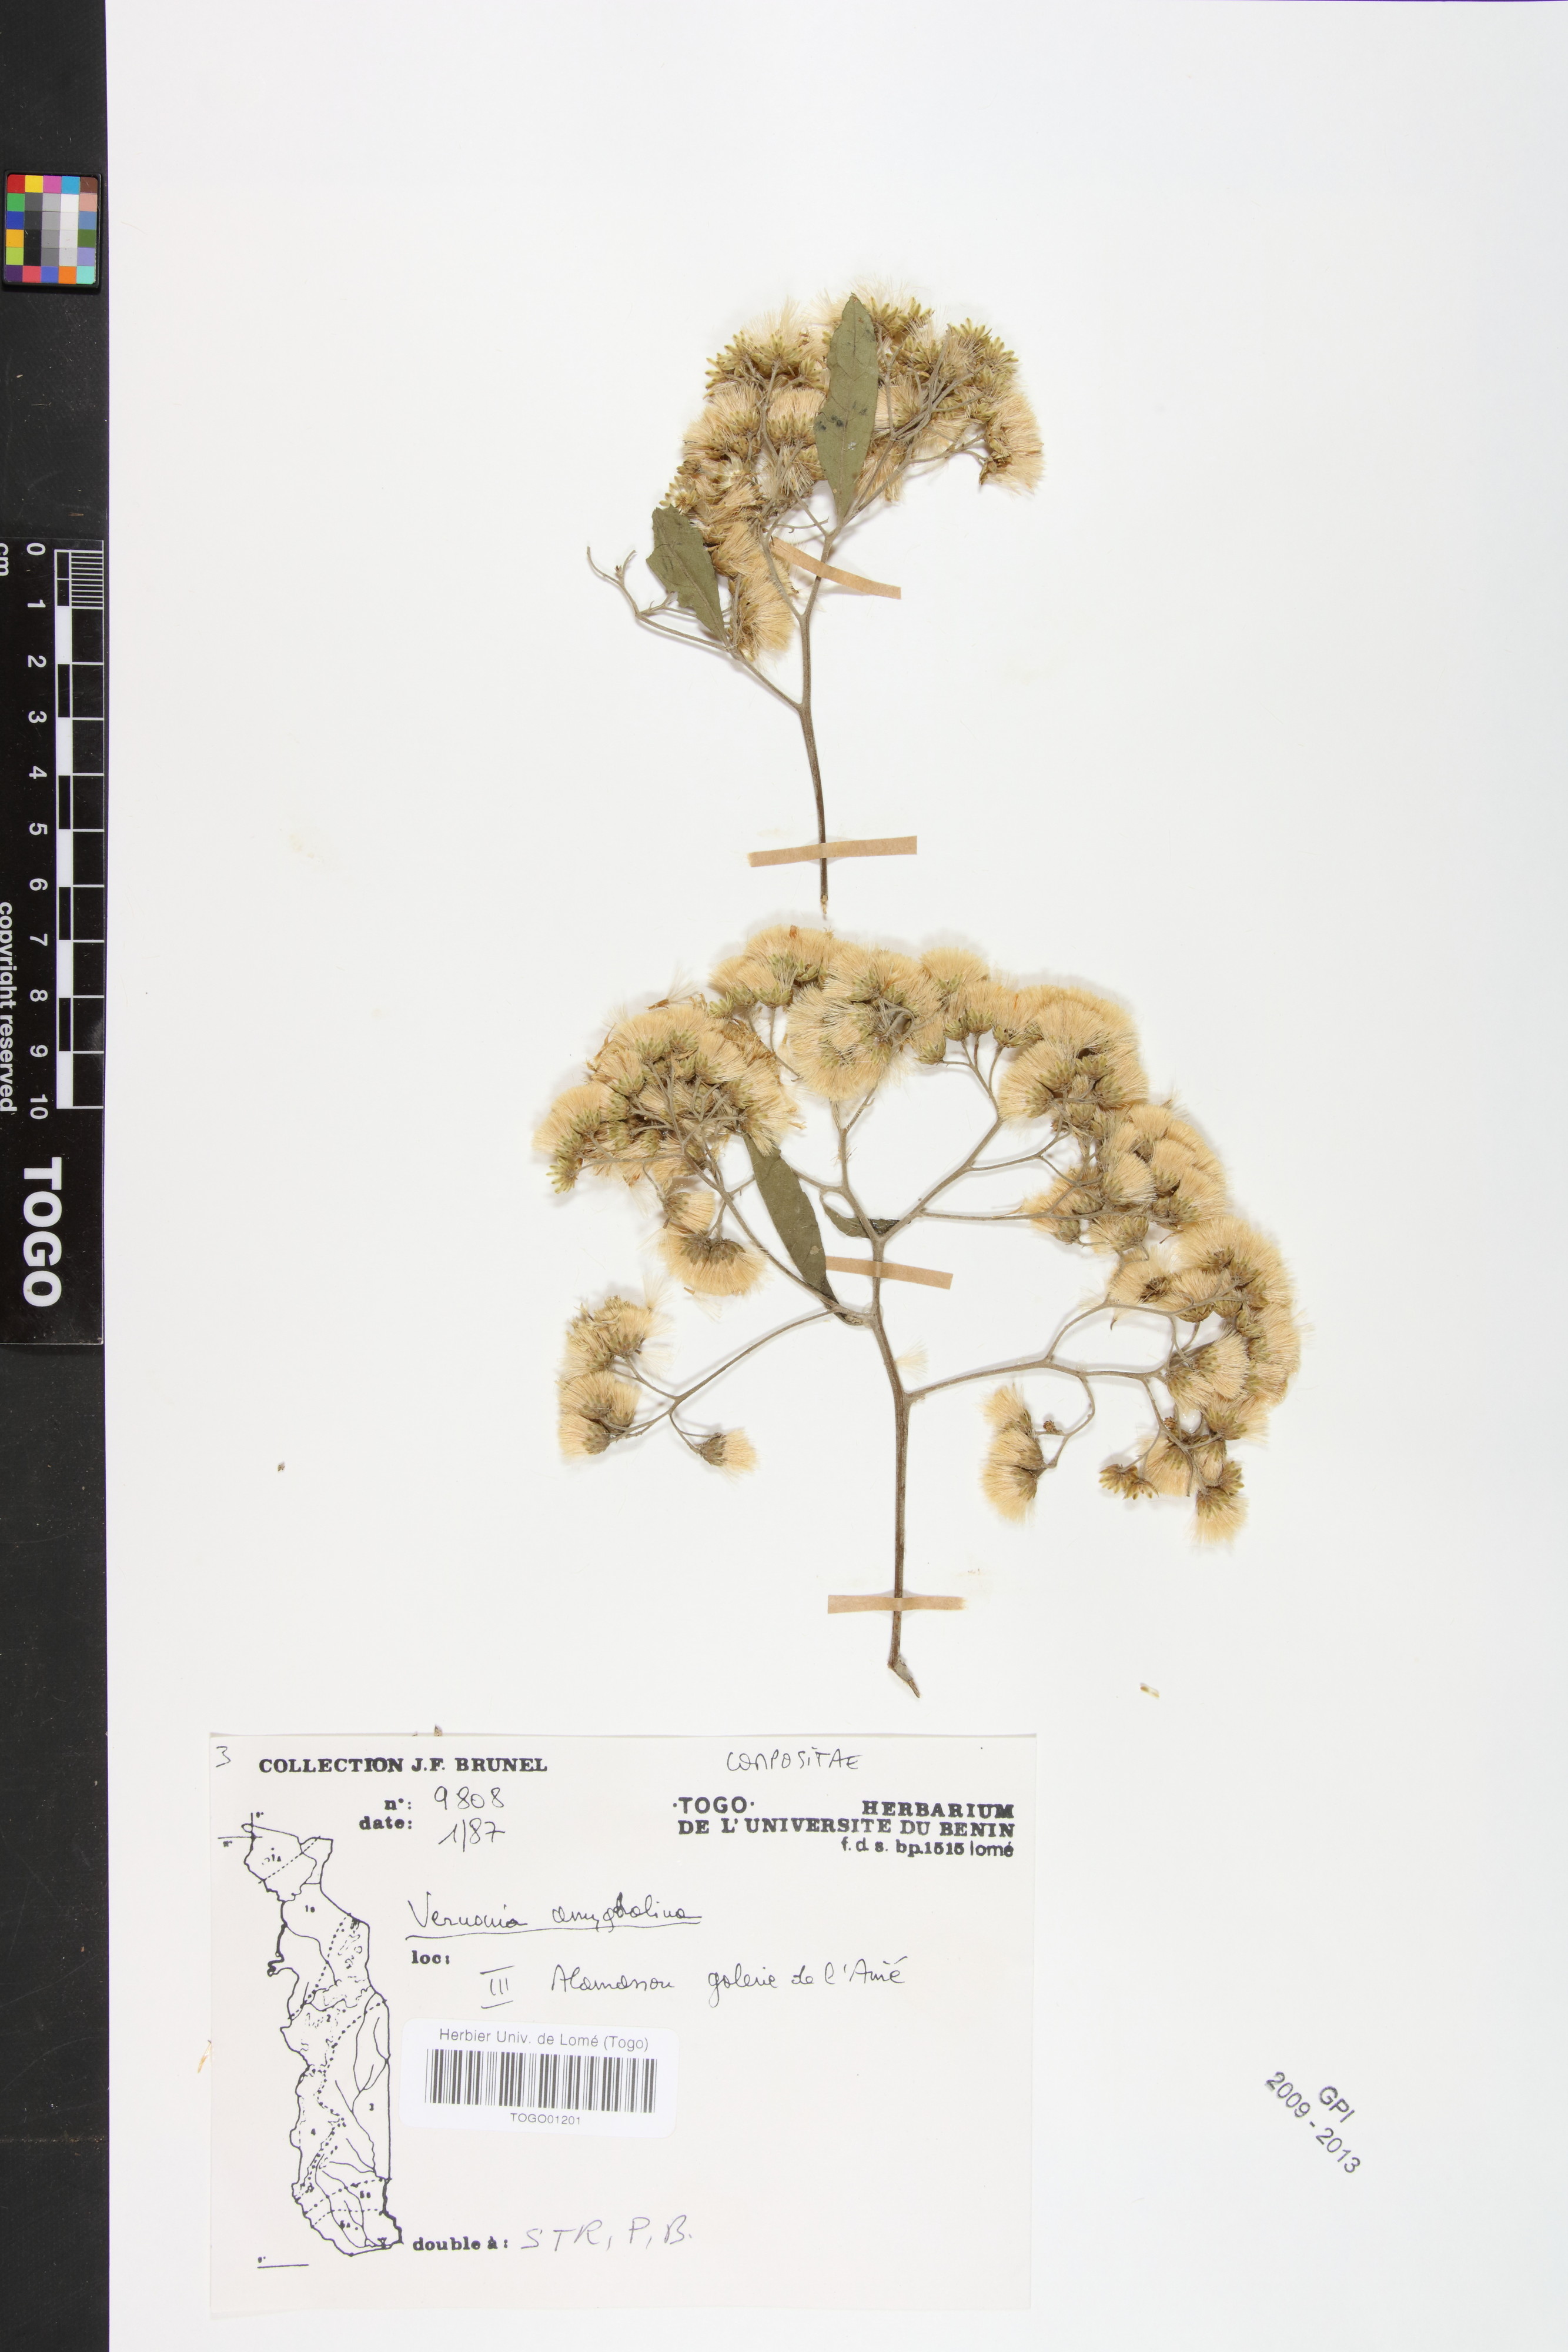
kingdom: Plantae
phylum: Tracheophyta
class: Magnoliopsida
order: Asterales
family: Asteraceae
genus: Gymnanthemum
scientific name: Gymnanthemum amygdalinum
